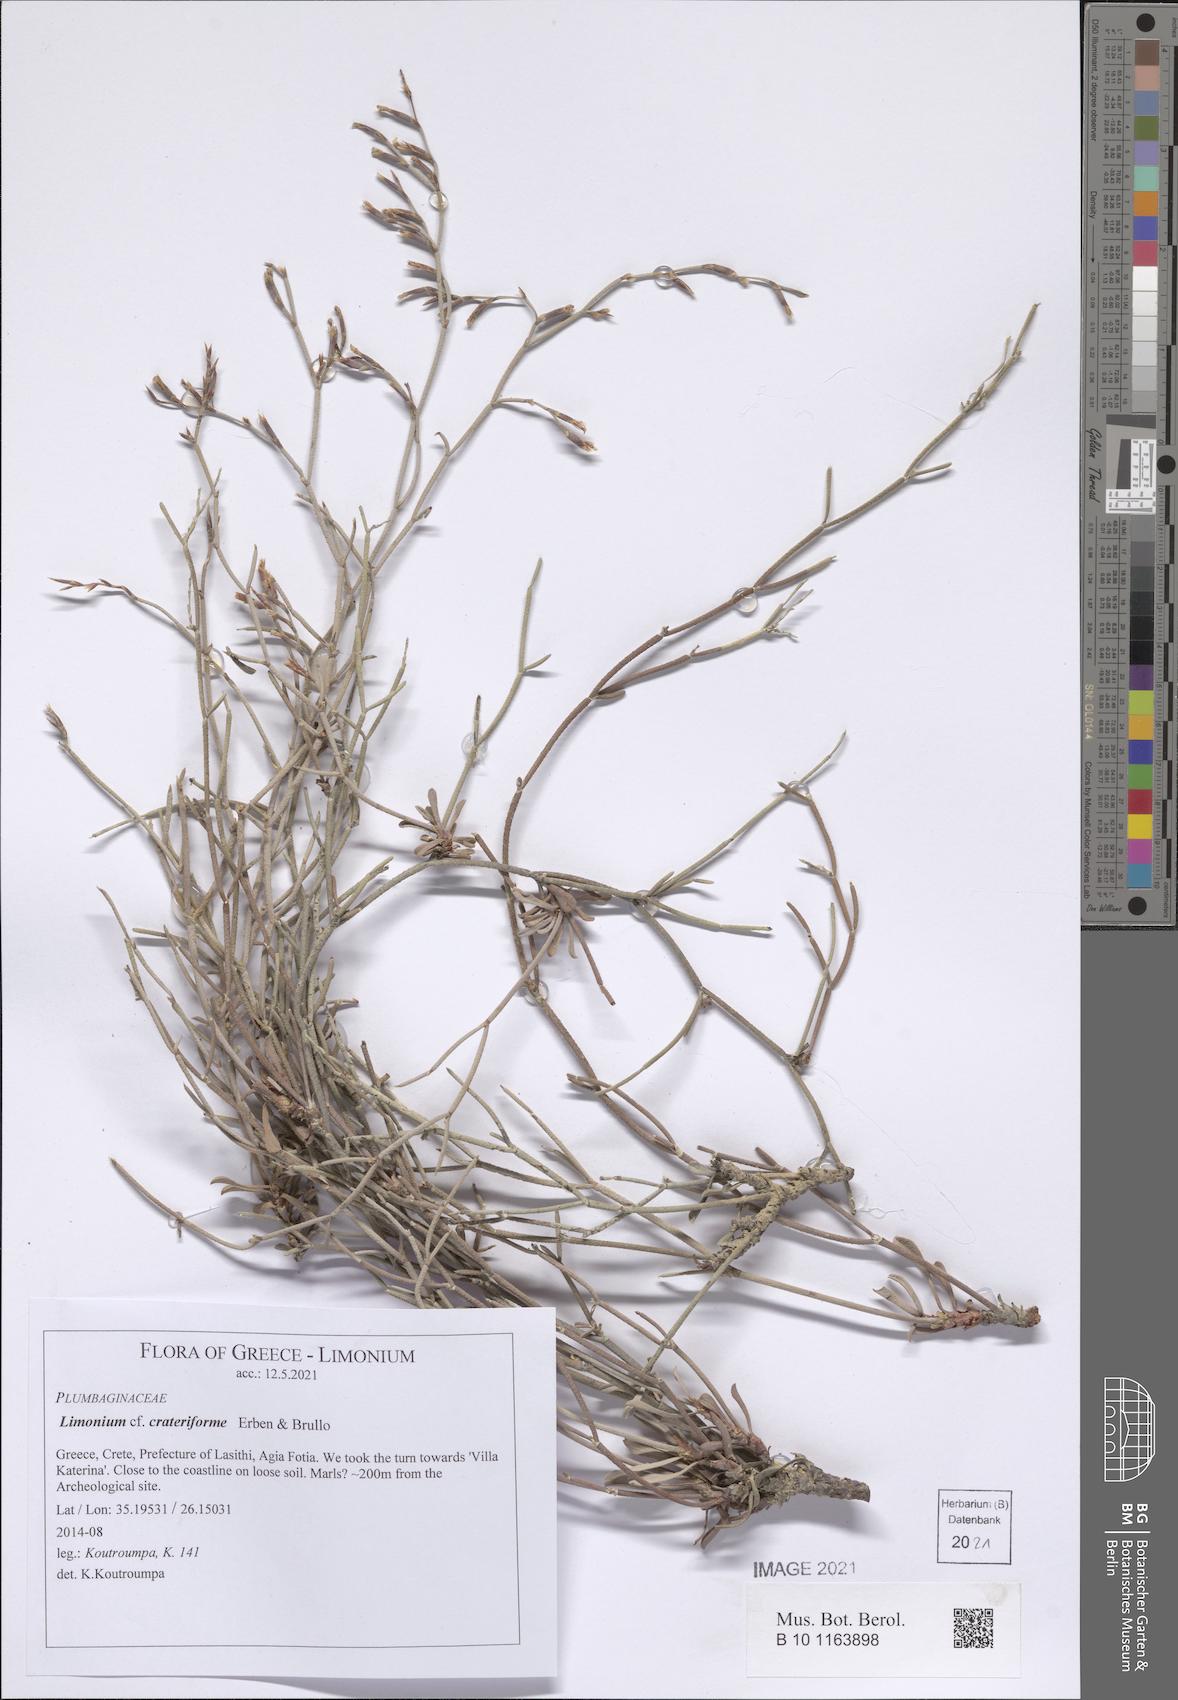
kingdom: Plantae
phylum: Tracheophyta
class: Magnoliopsida
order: Caryophyllales
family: Plumbaginaceae
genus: Limonium
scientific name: Limonium crateriforme
